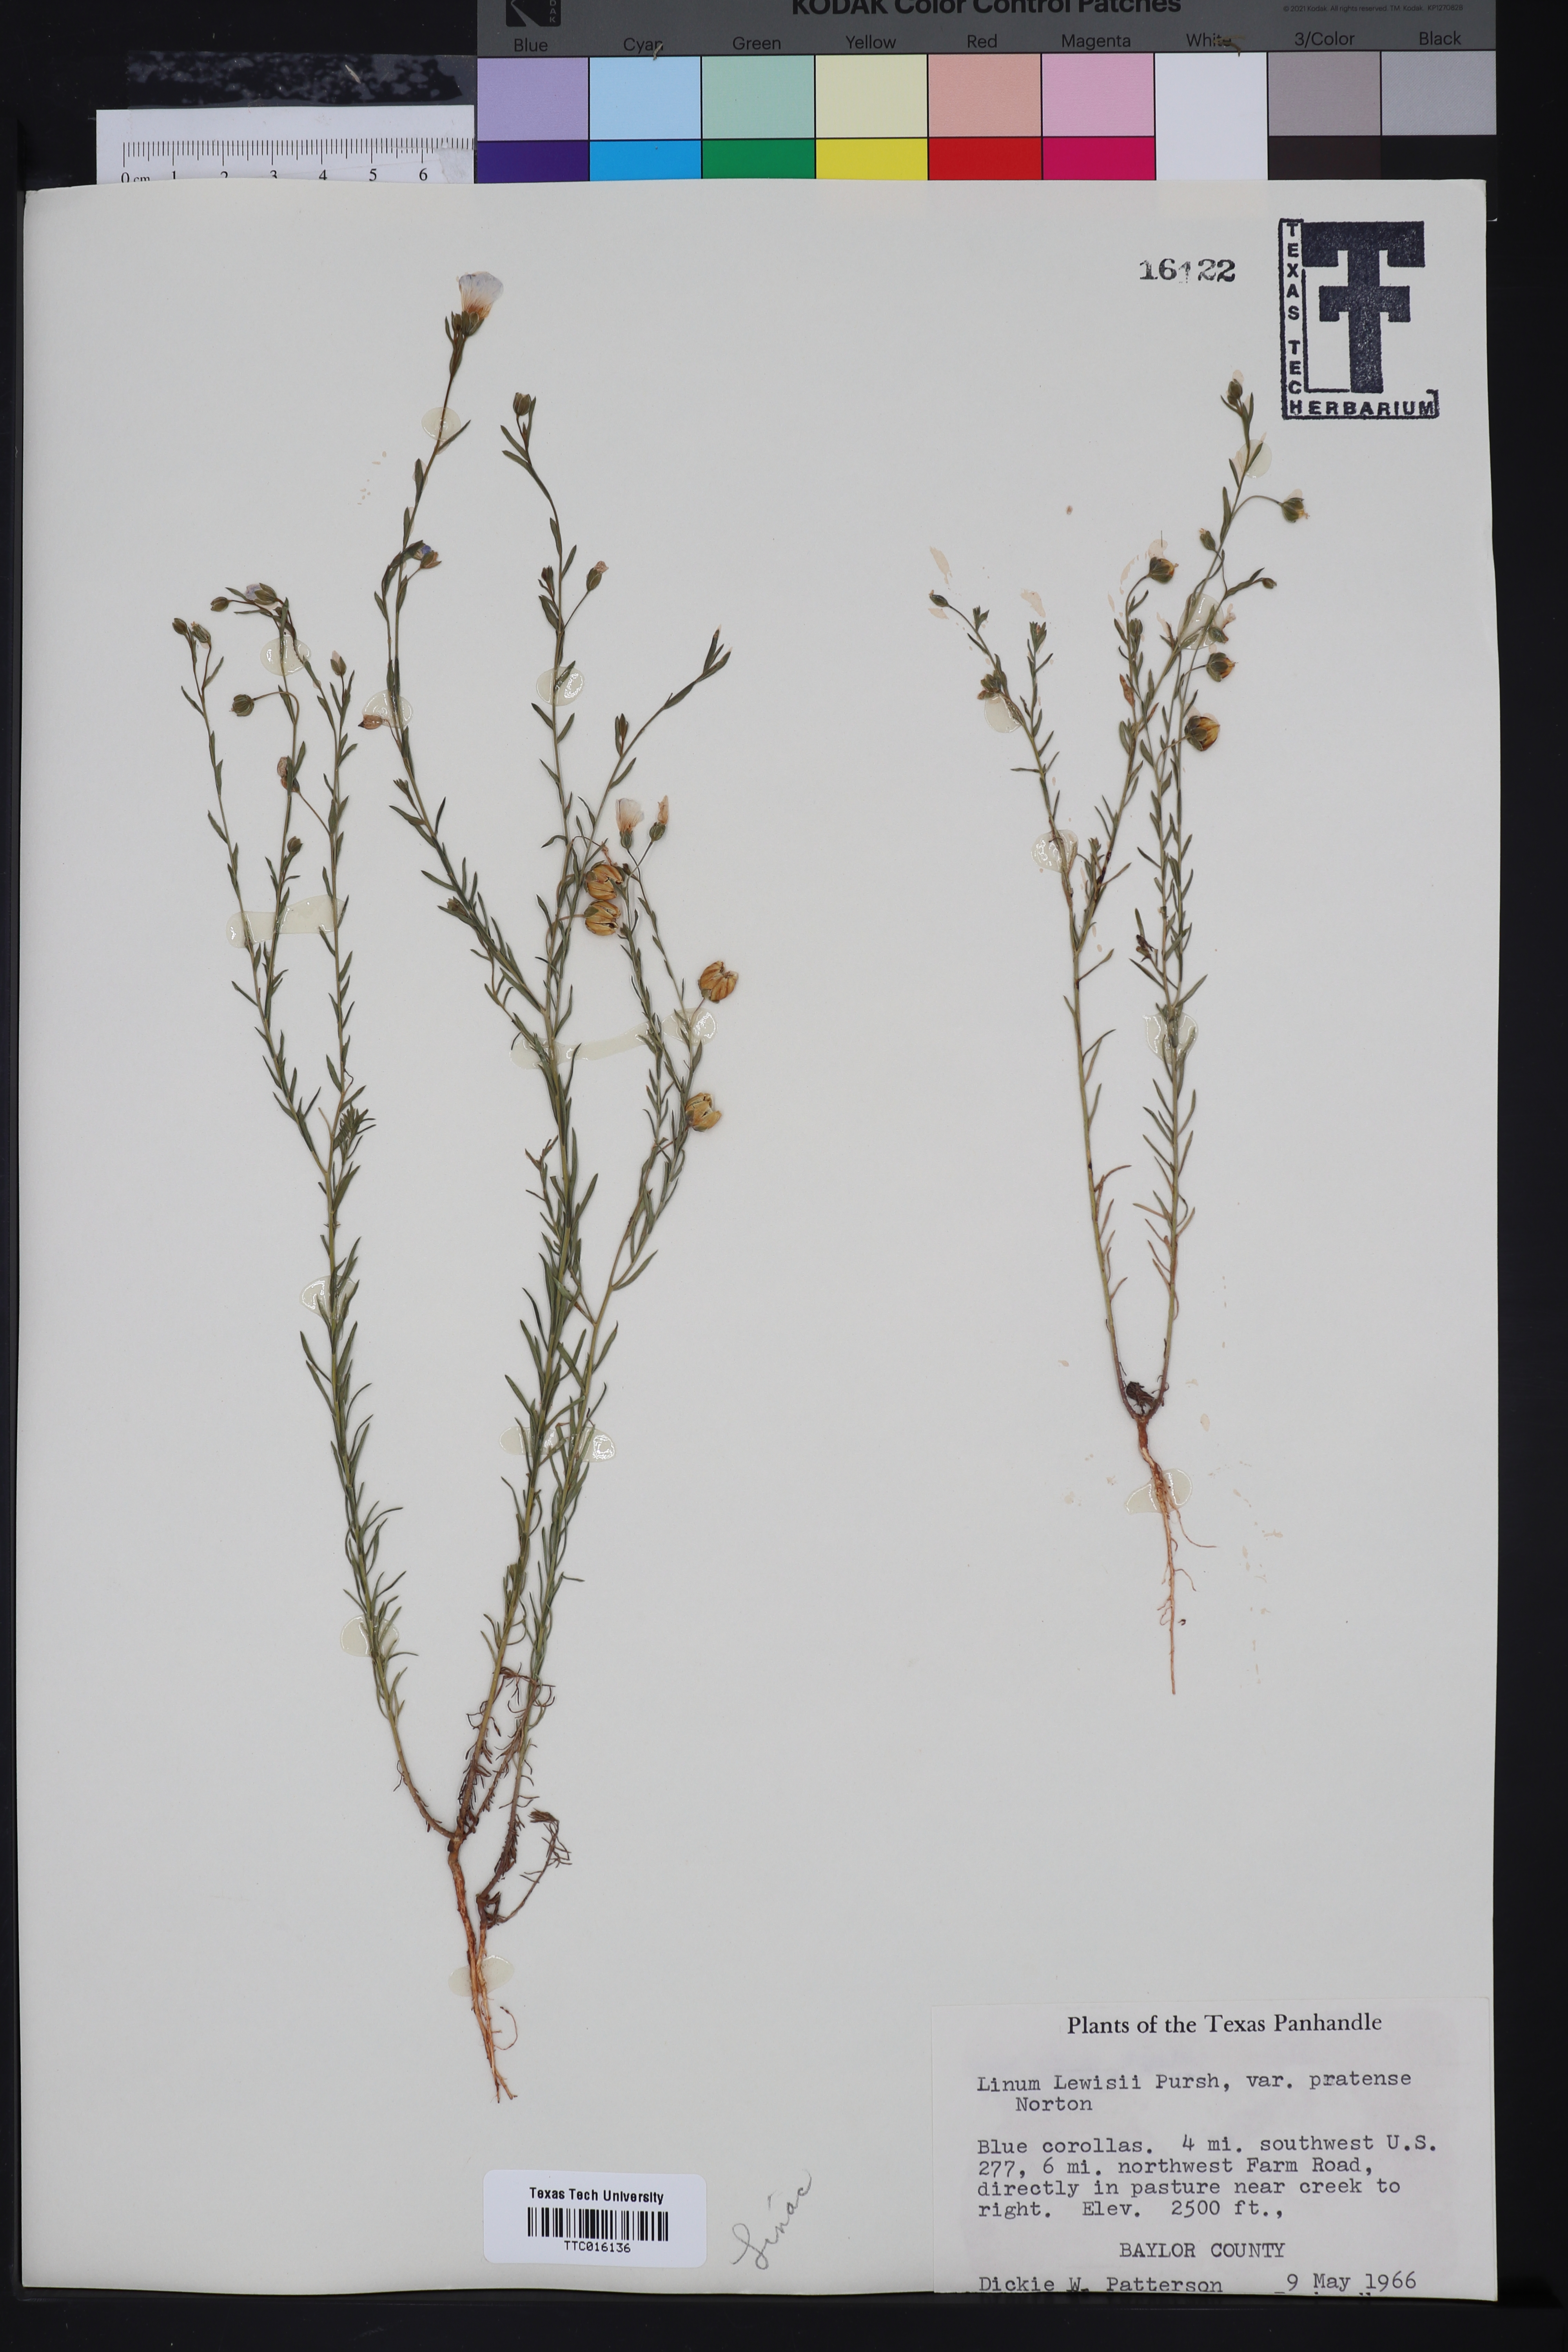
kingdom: Plantae
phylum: Tracheophyta
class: Magnoliopsida
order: Malpighiales
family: Linaceae
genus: Linum
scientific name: Linum lewisii
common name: Prairie flax
